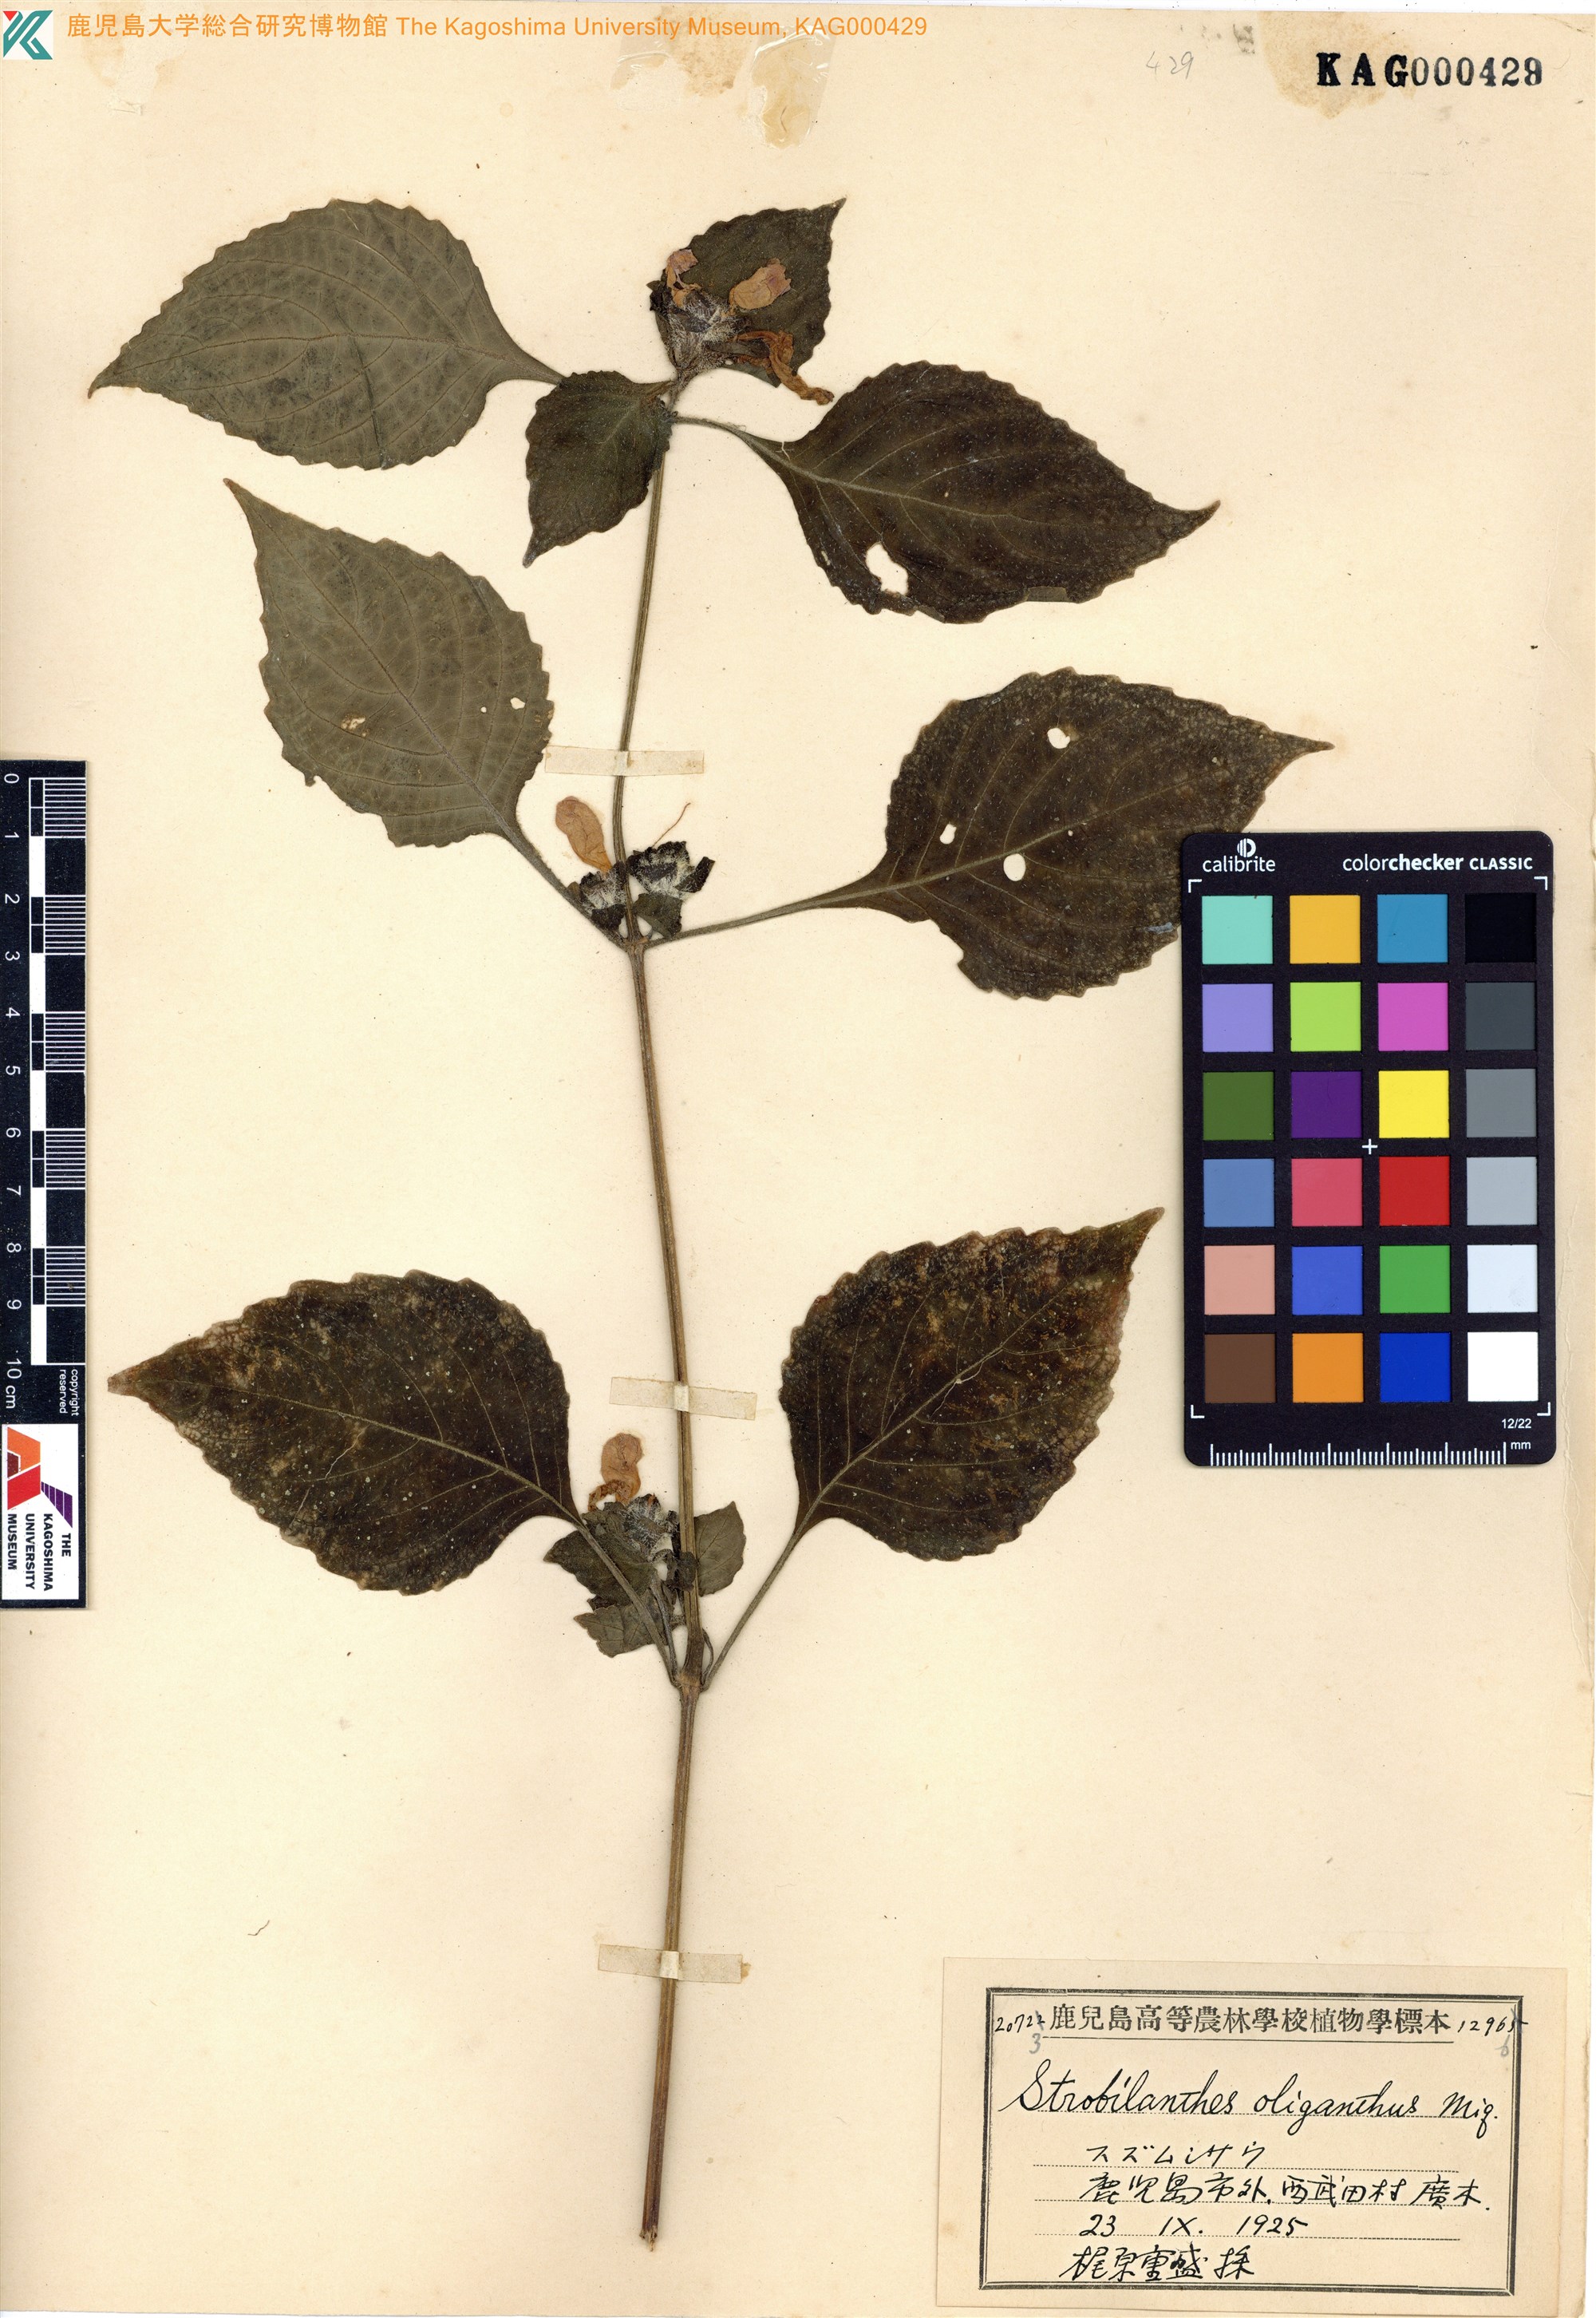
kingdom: Plantae
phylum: Tracheophyta
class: Magnoliopsida
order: Lamiales
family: Acanthaceae
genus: Strobilanthes
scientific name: Strobilanthes oligantha
